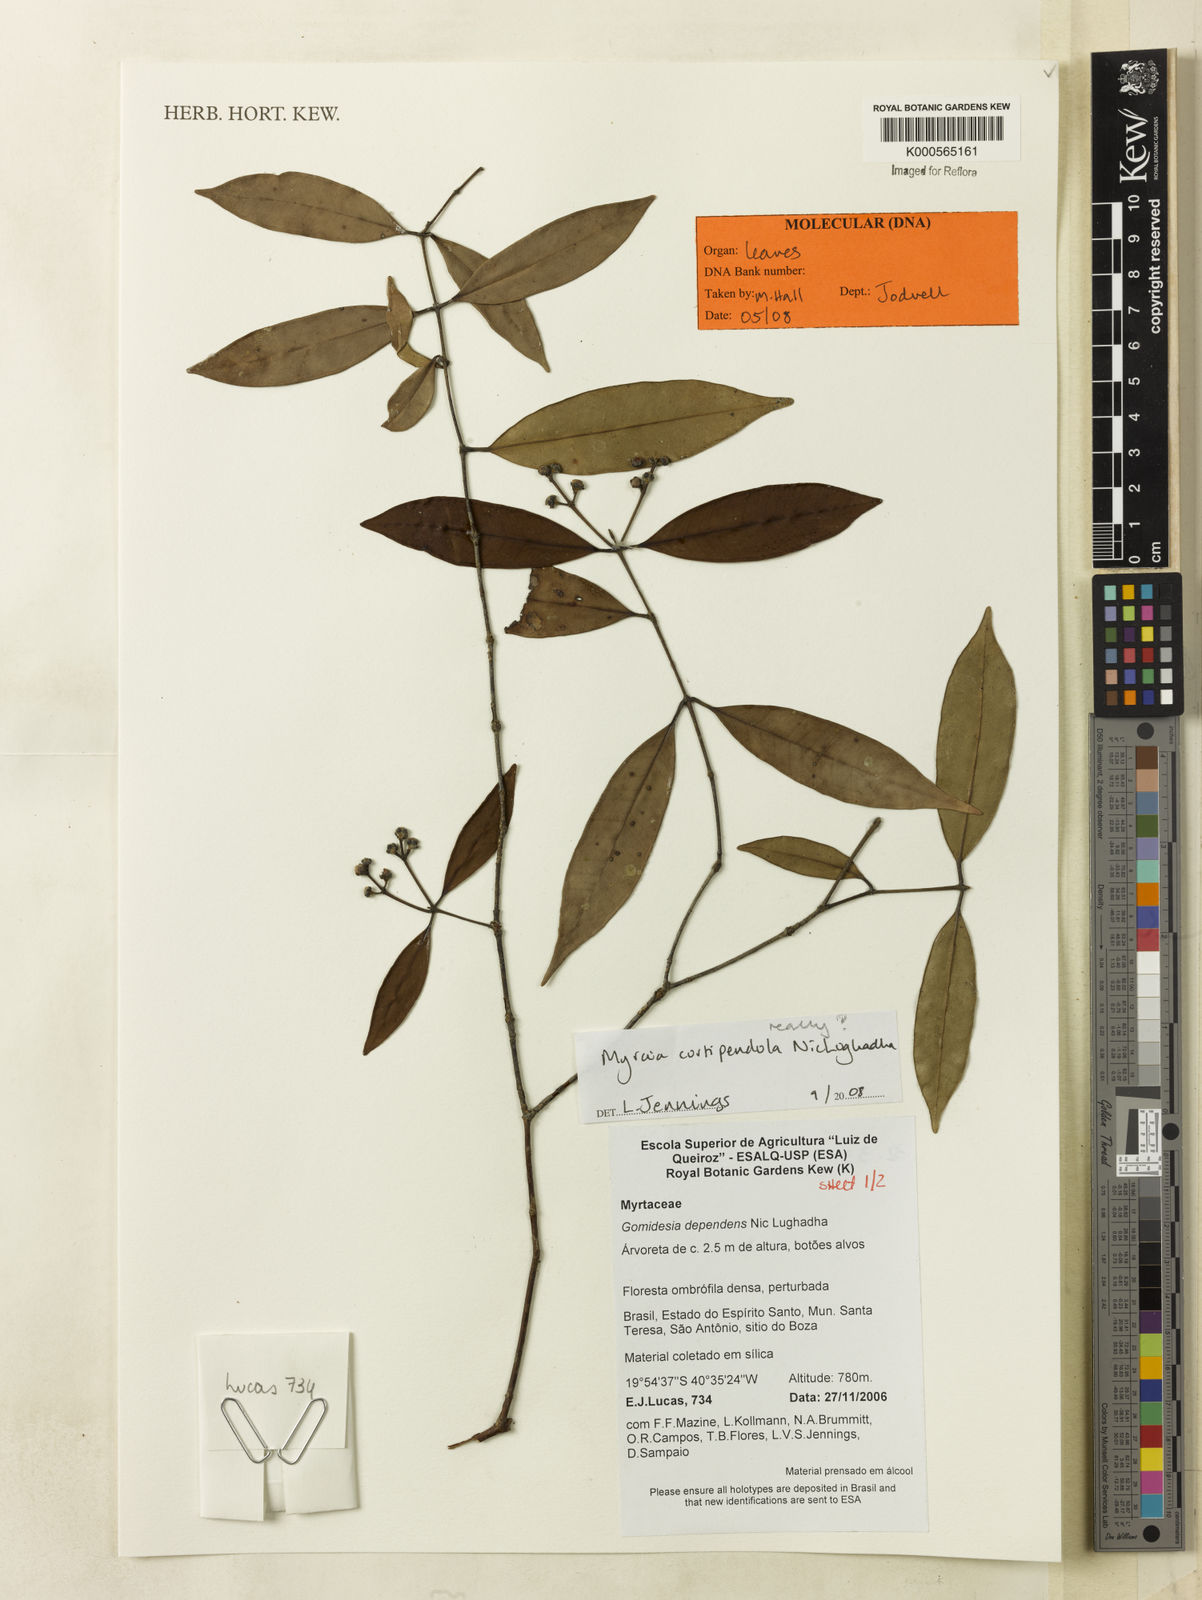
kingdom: Plantae
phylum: Tracheophyta
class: Magnoliopsida
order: Myrtales
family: Myrtaceae
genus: Myrcia
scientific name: Myrcia curtipendula
